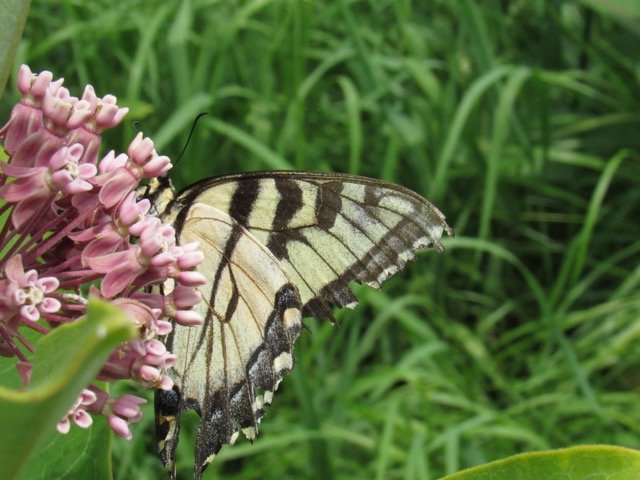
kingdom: Animalia
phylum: Arthropoda
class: Insecta
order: Lepidoptera
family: Papilionidae
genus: Pterourus
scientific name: Pterourus
